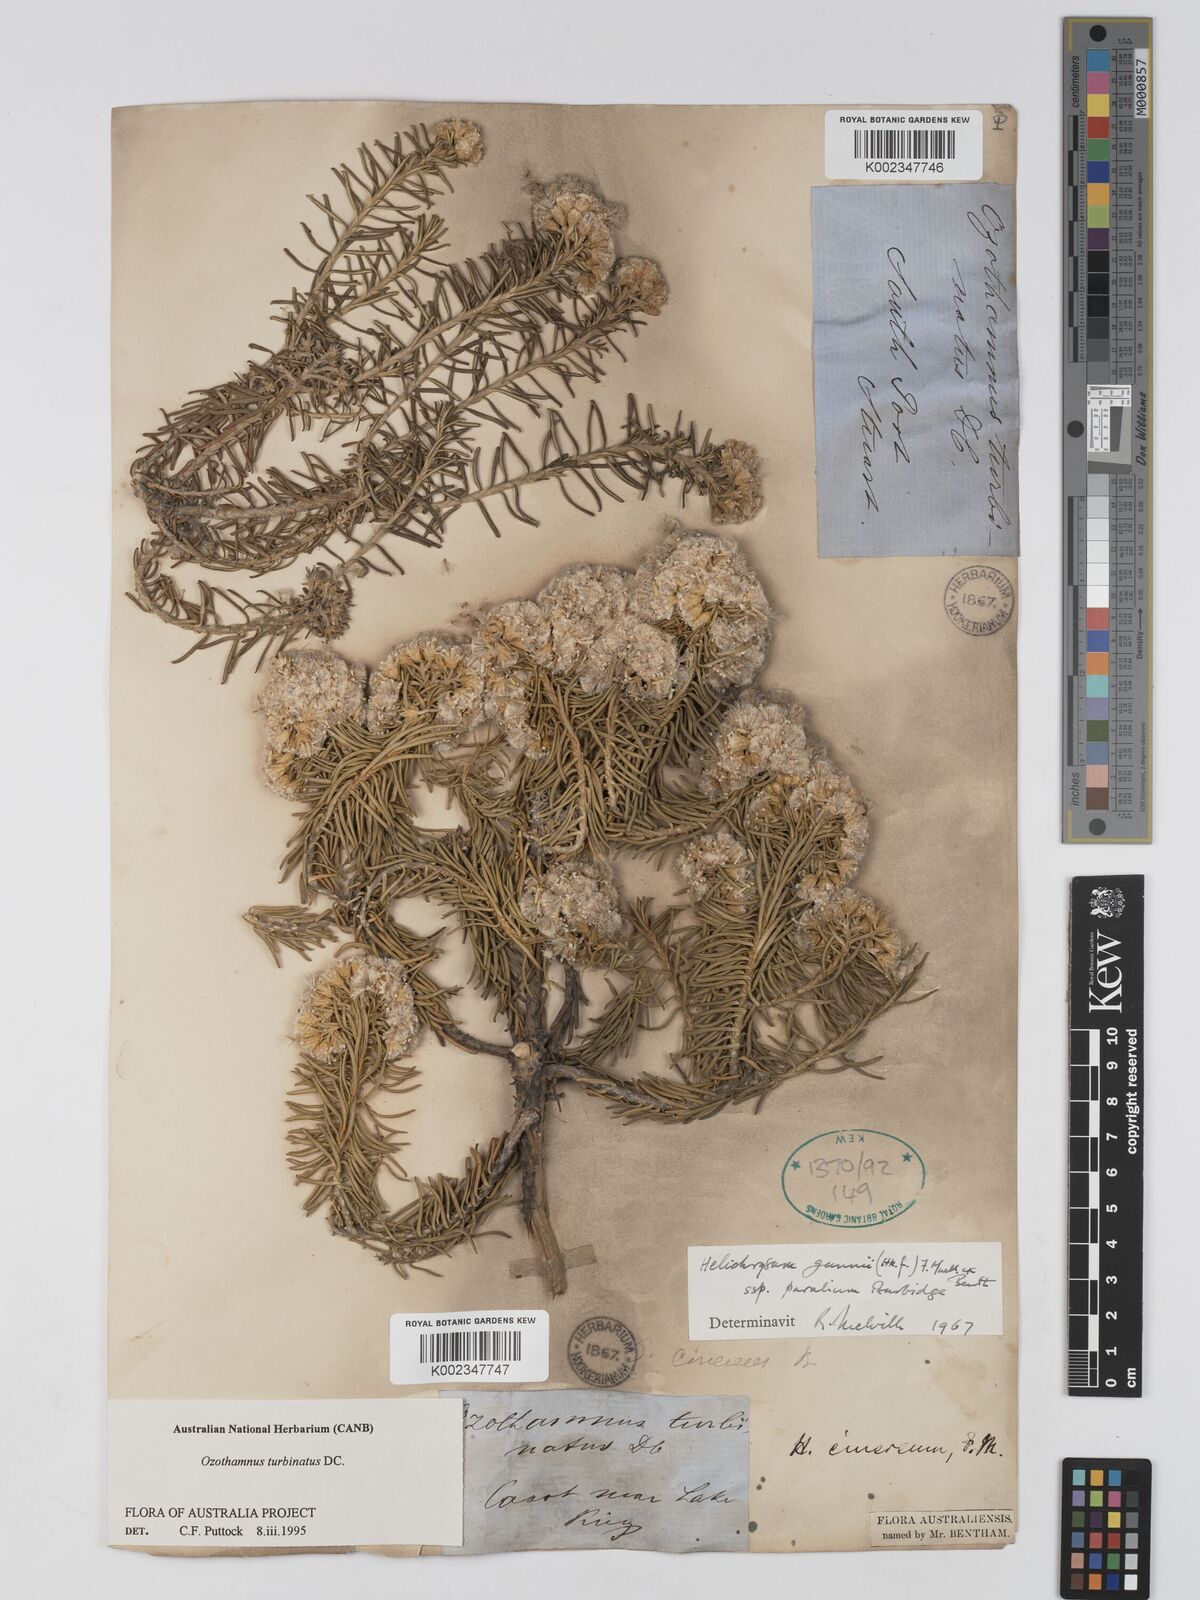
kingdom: Plantae
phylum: Tracheophyta
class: Magnoliopsida
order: Asterales
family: Asteraceae
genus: Ozothamnus
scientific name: Ozothamnus cinereus
